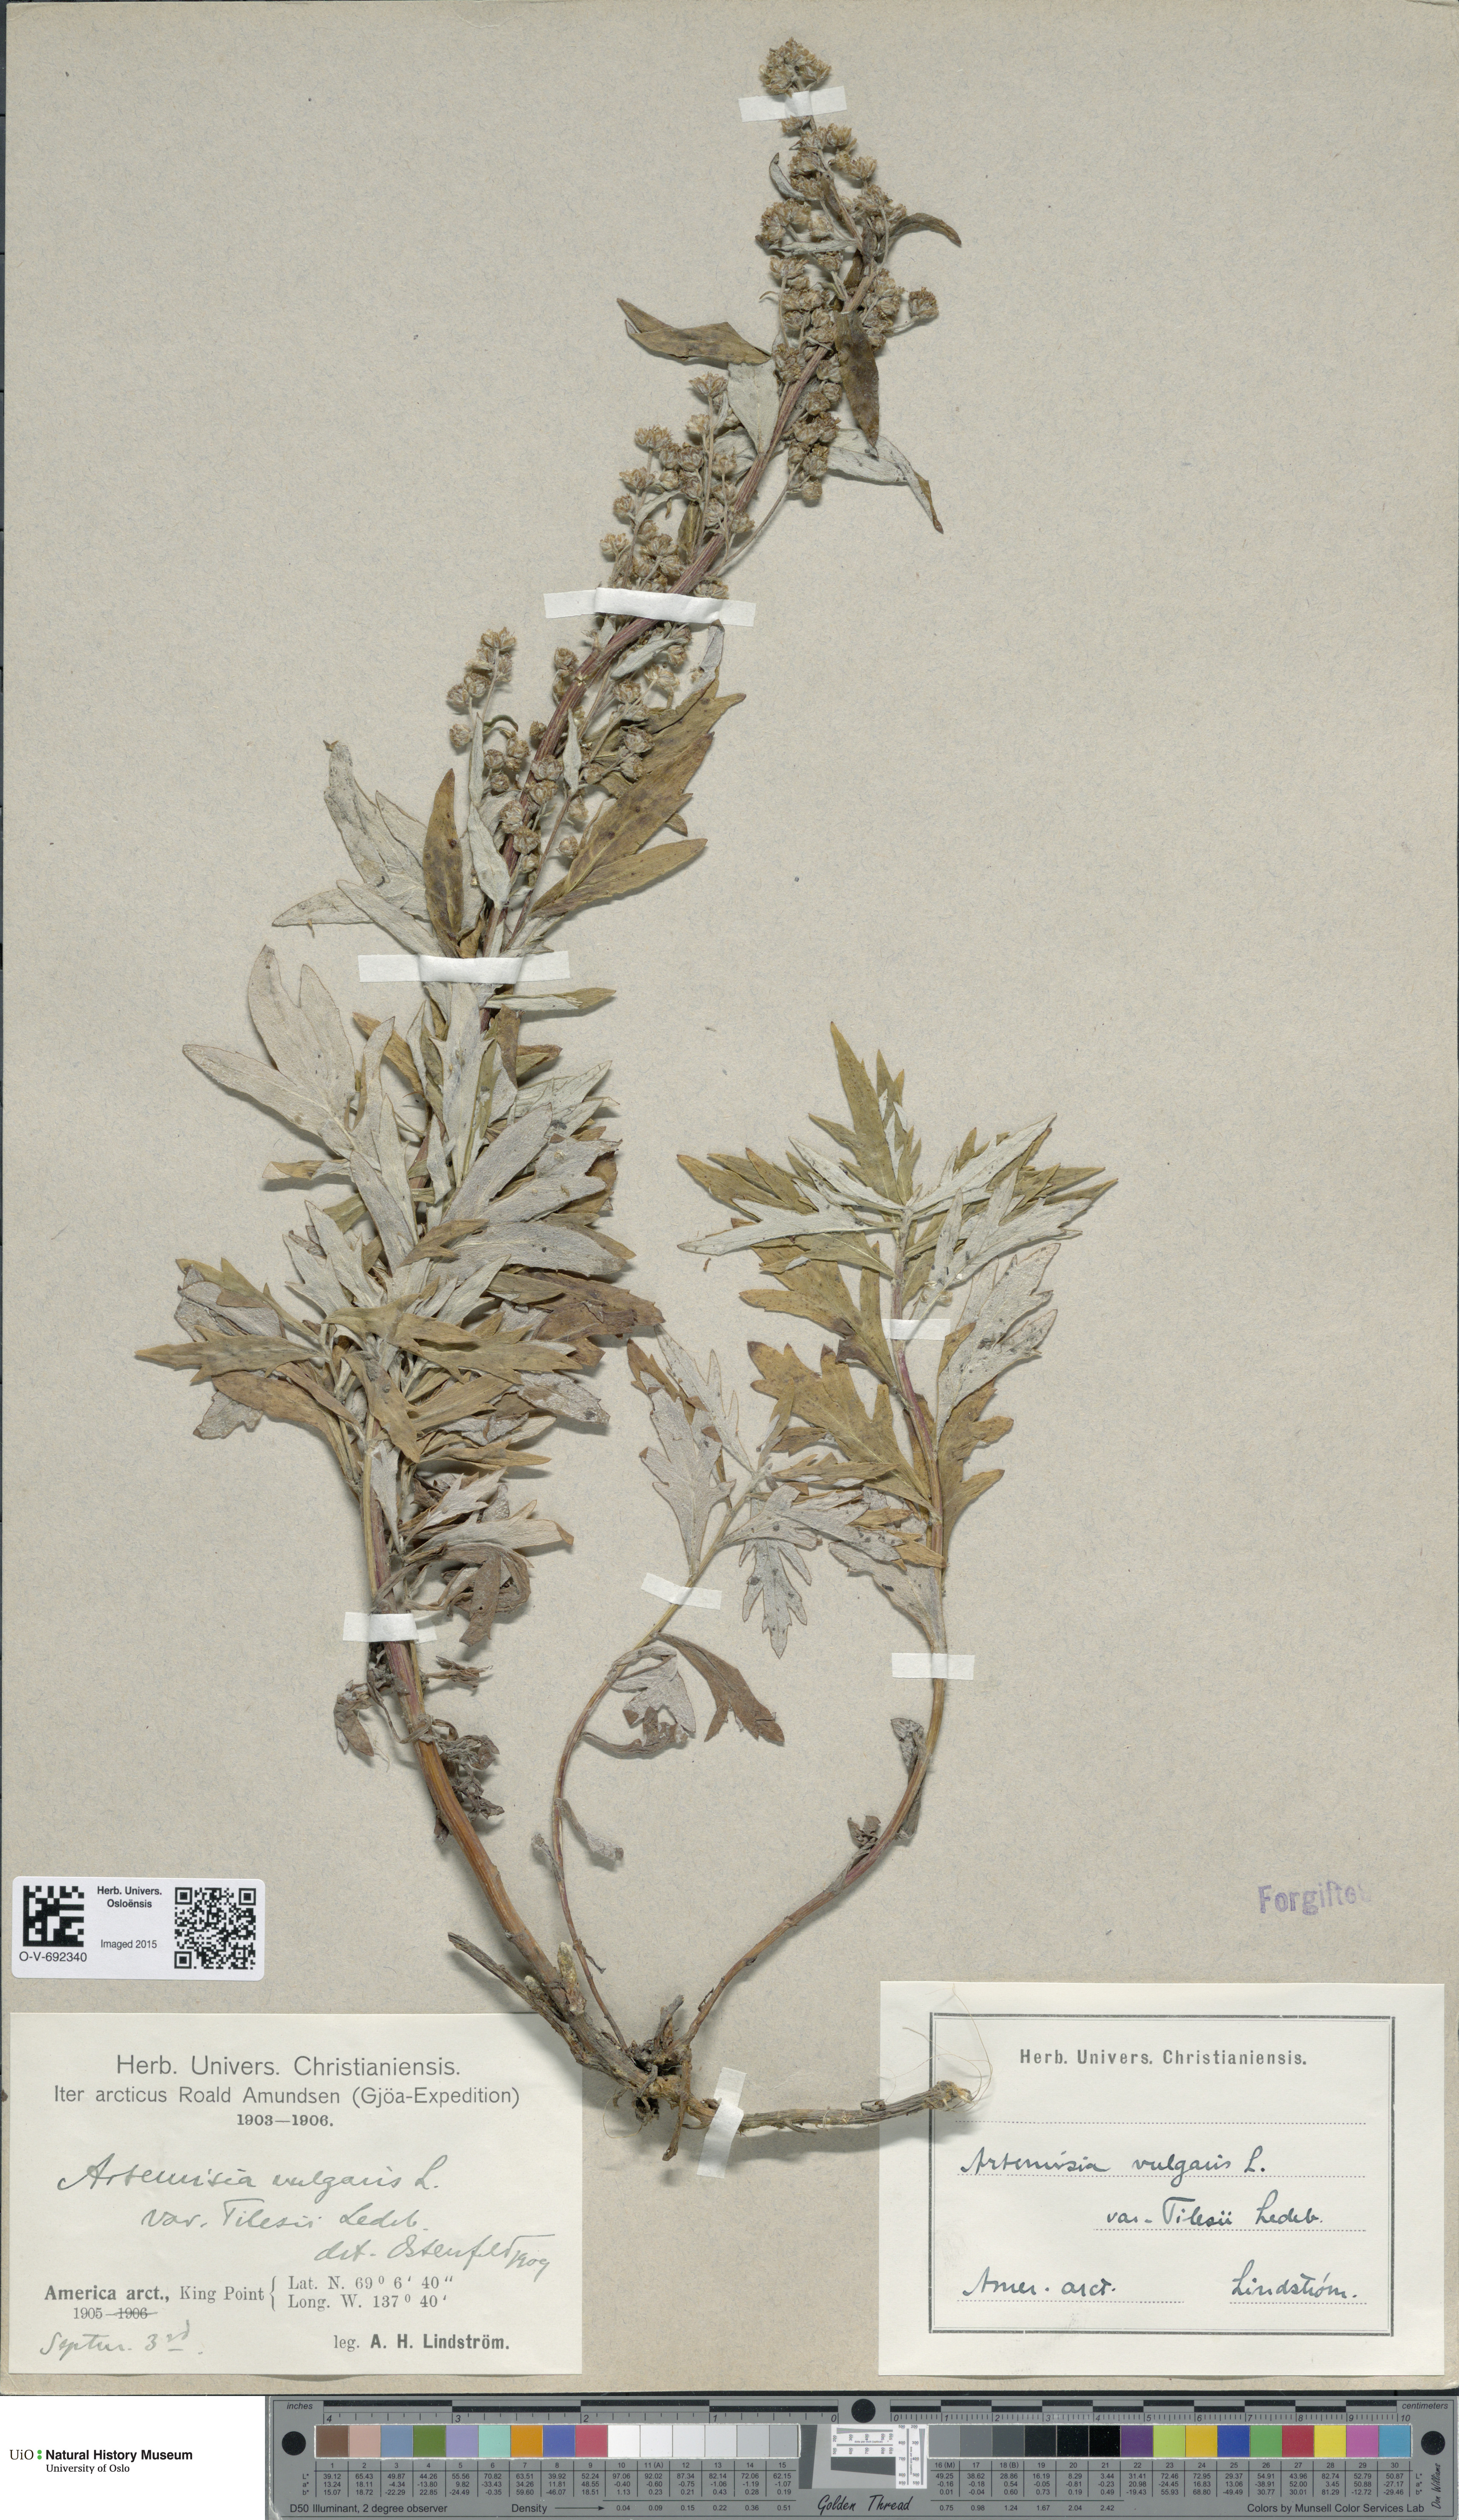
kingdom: Plantae
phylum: Tracheophyta
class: Magnoliopsida
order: Asterales
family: Asteraceae
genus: Artemisia
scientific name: Artemisia tilesii
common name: Aleutian mugwort
